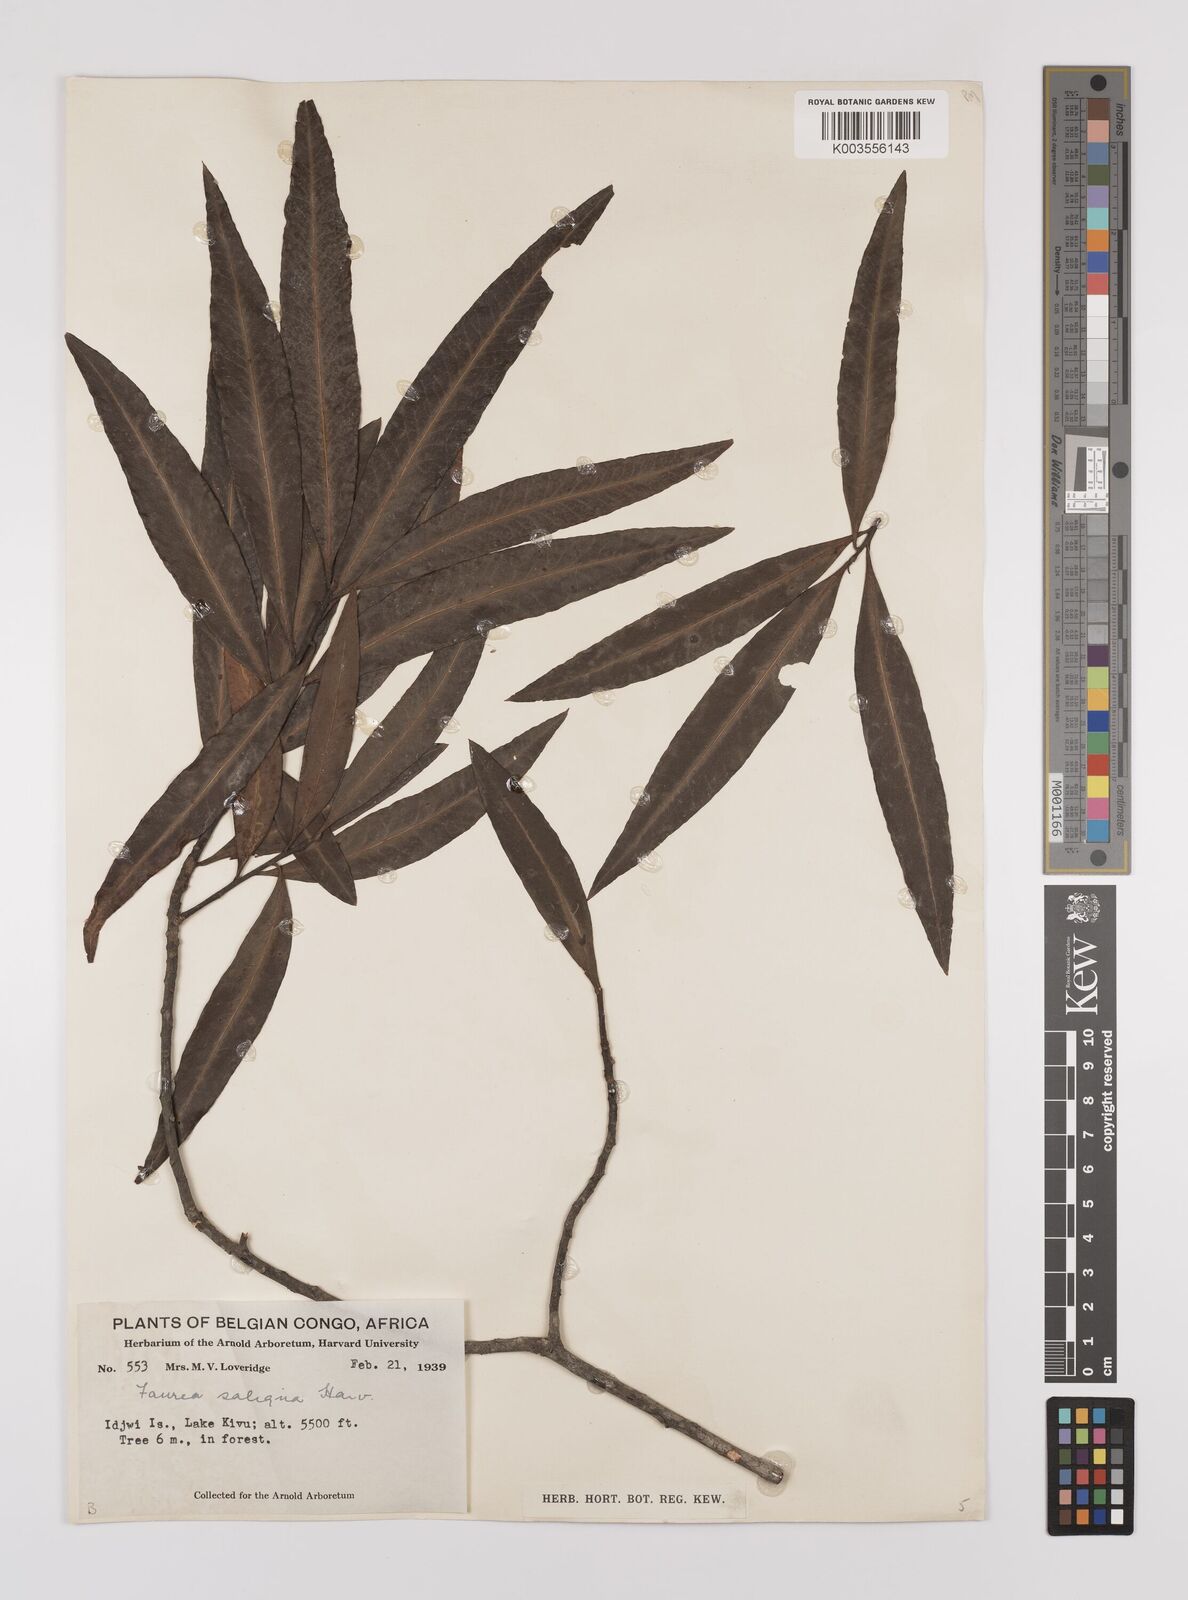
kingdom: Plantae
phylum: Tracheophyta
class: Magnoliopsida
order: Proteales
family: Proteaceae
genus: Faurea
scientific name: Faurea saligna
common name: African bean
